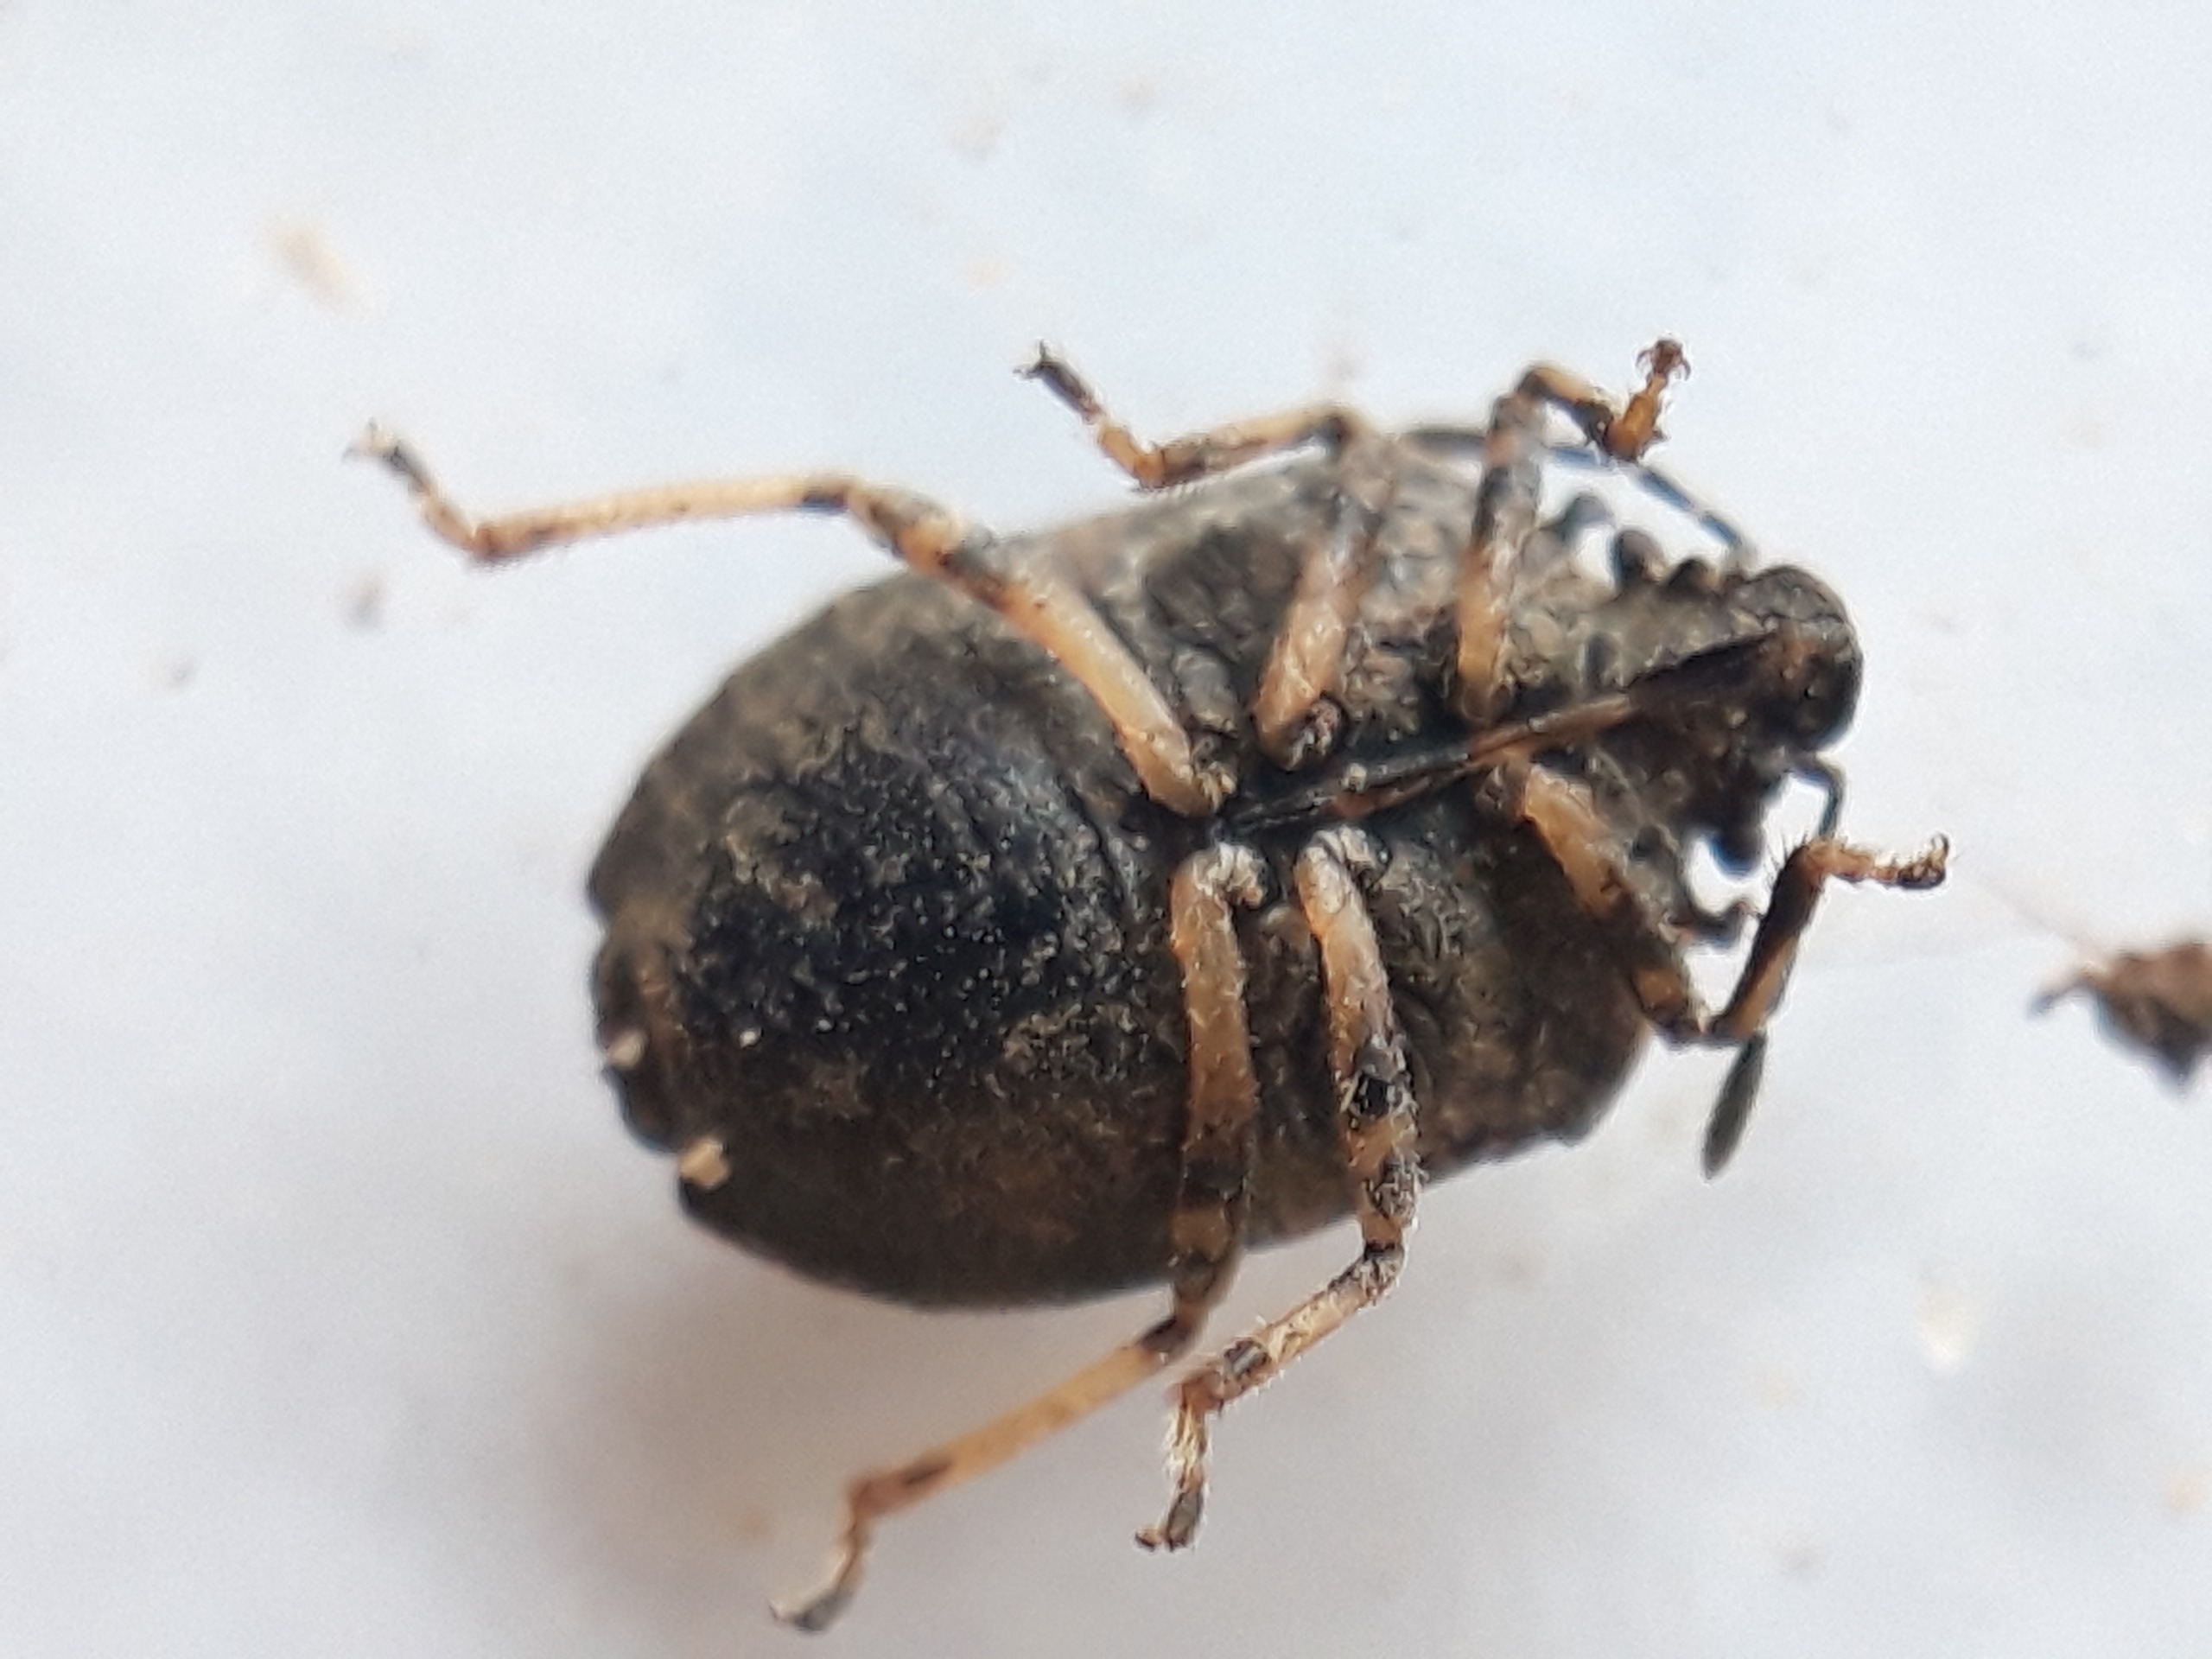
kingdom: Animalia
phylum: Arthropoda
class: Insecta
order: Hemiptera
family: Pentatomidae
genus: Podops
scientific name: Podops inunctus
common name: Krogtæge
